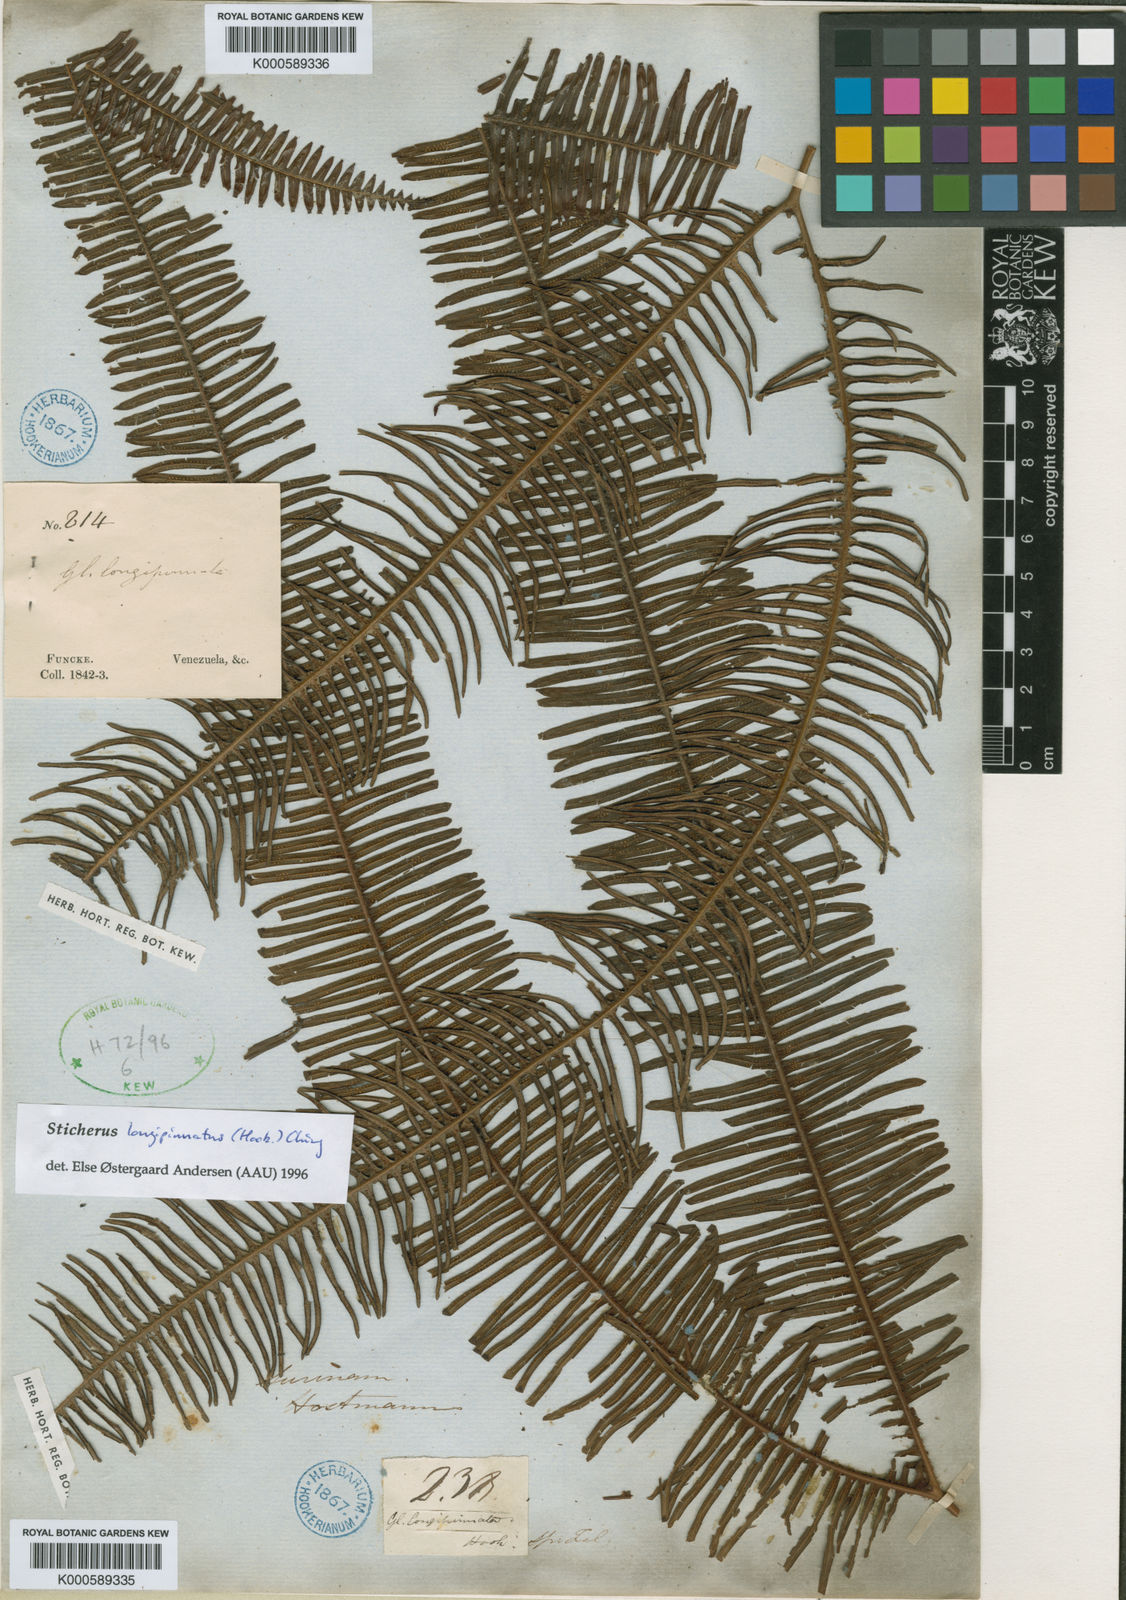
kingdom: Plantae
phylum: Tracheophyta
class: Polypodiopsida
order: Gleicheniales
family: Gleicheniaceae
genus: Sticherus
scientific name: Sticherus longipinnatus
